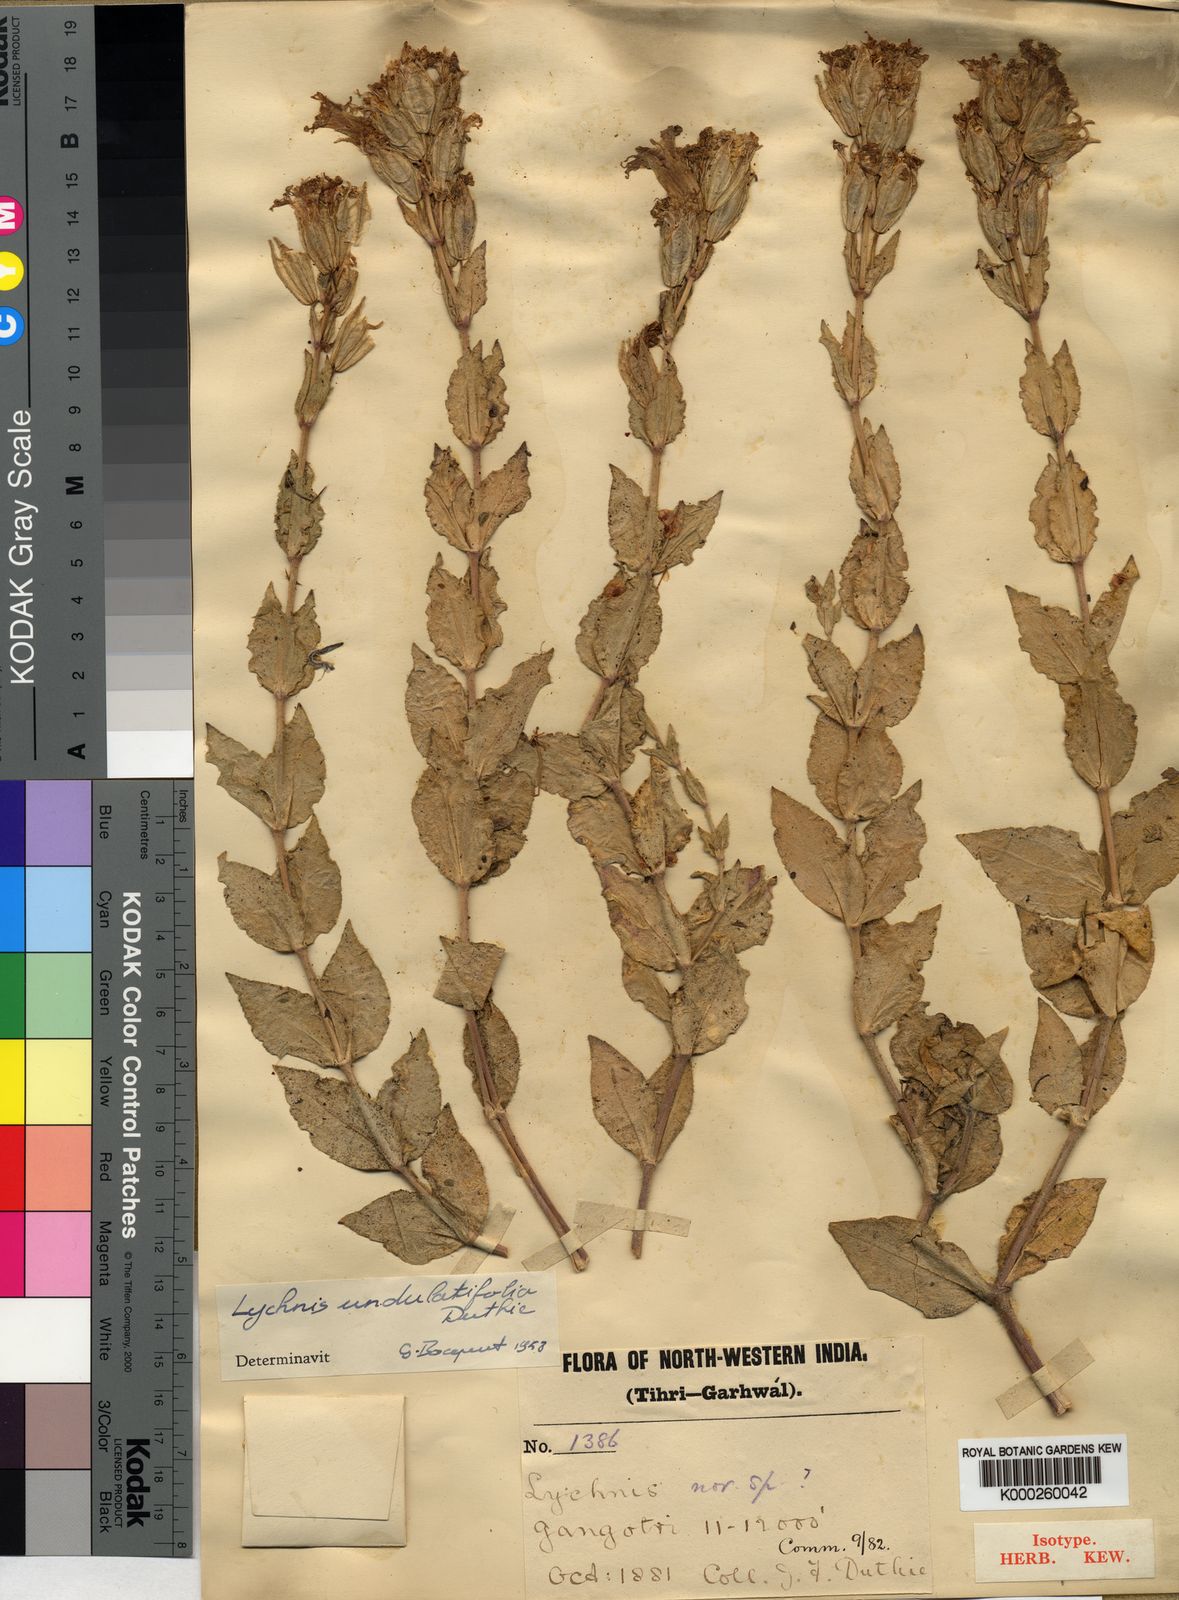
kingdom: Plantae
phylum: Tracheophyta
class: Magnoliopsida
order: Caryophyllales
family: Caryophyllaceae
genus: Silene
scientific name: Silene gangotriana
